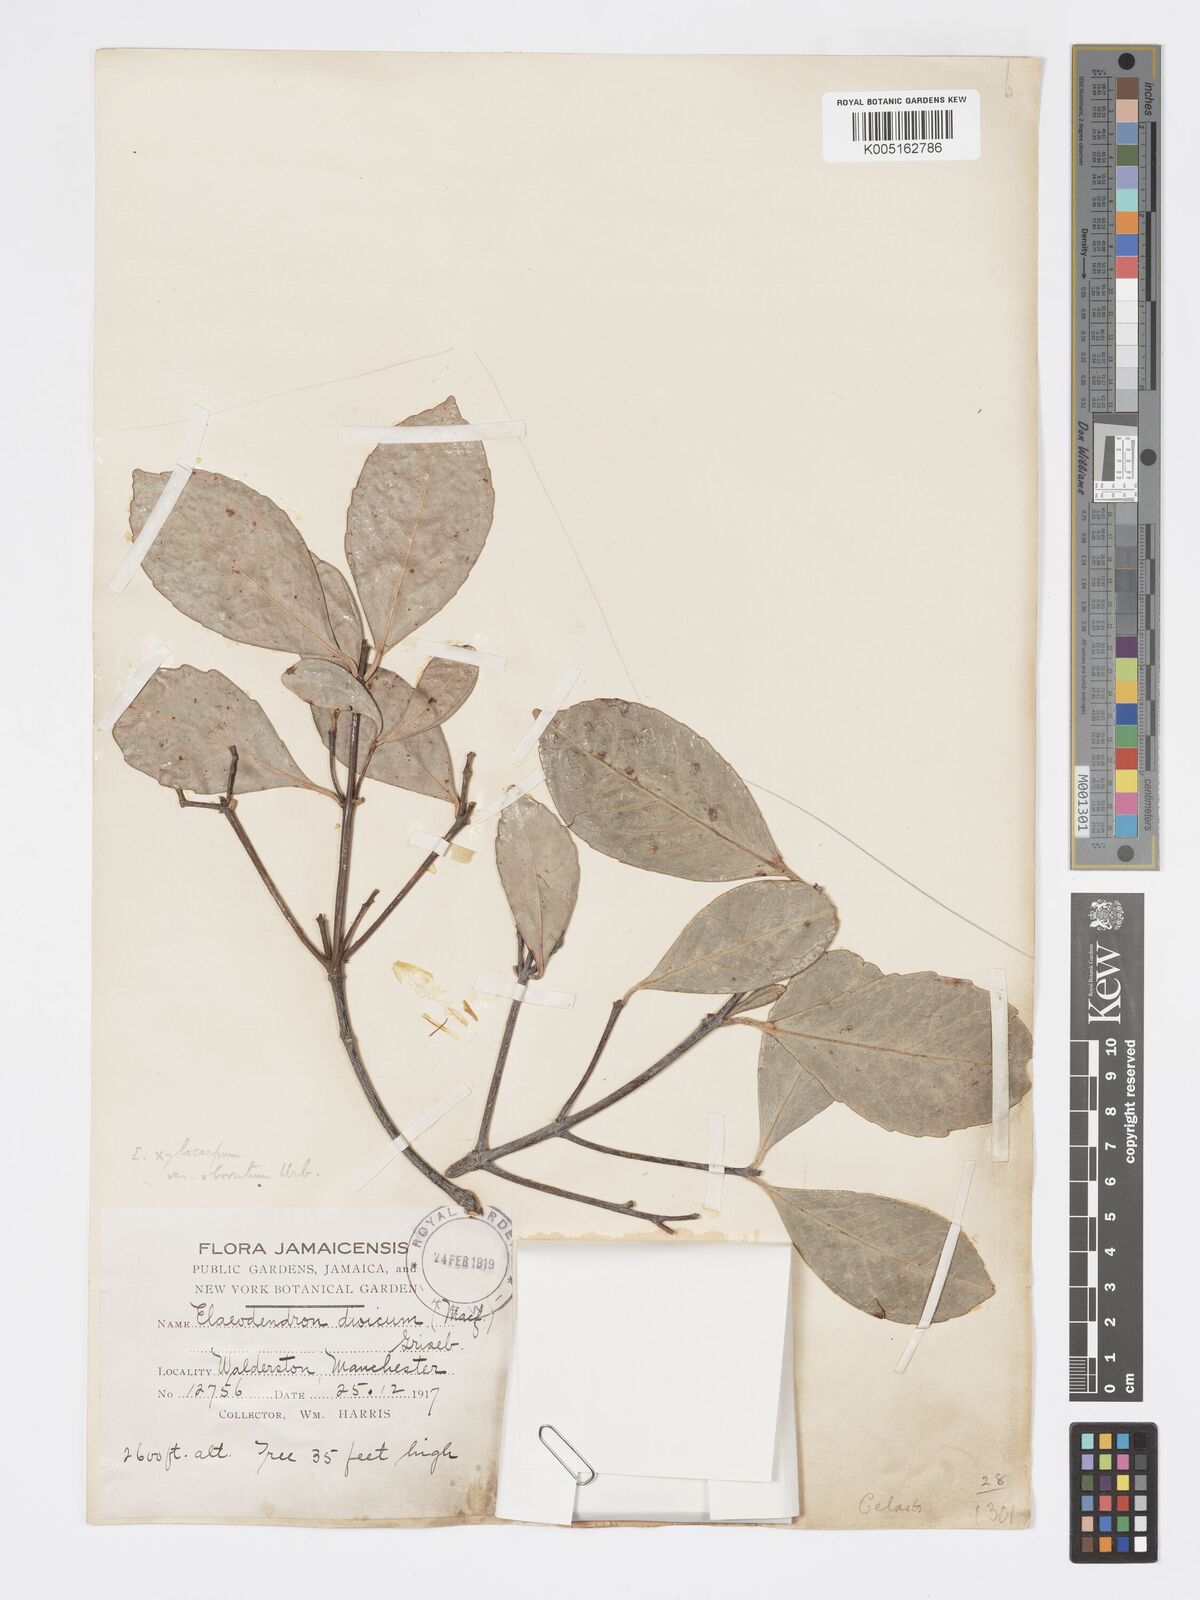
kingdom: Plantae
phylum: Tracheophyta
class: Magnoliopsida
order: Celastrales
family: Celastraceae
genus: Elaeodendron
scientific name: Elaeodendron
